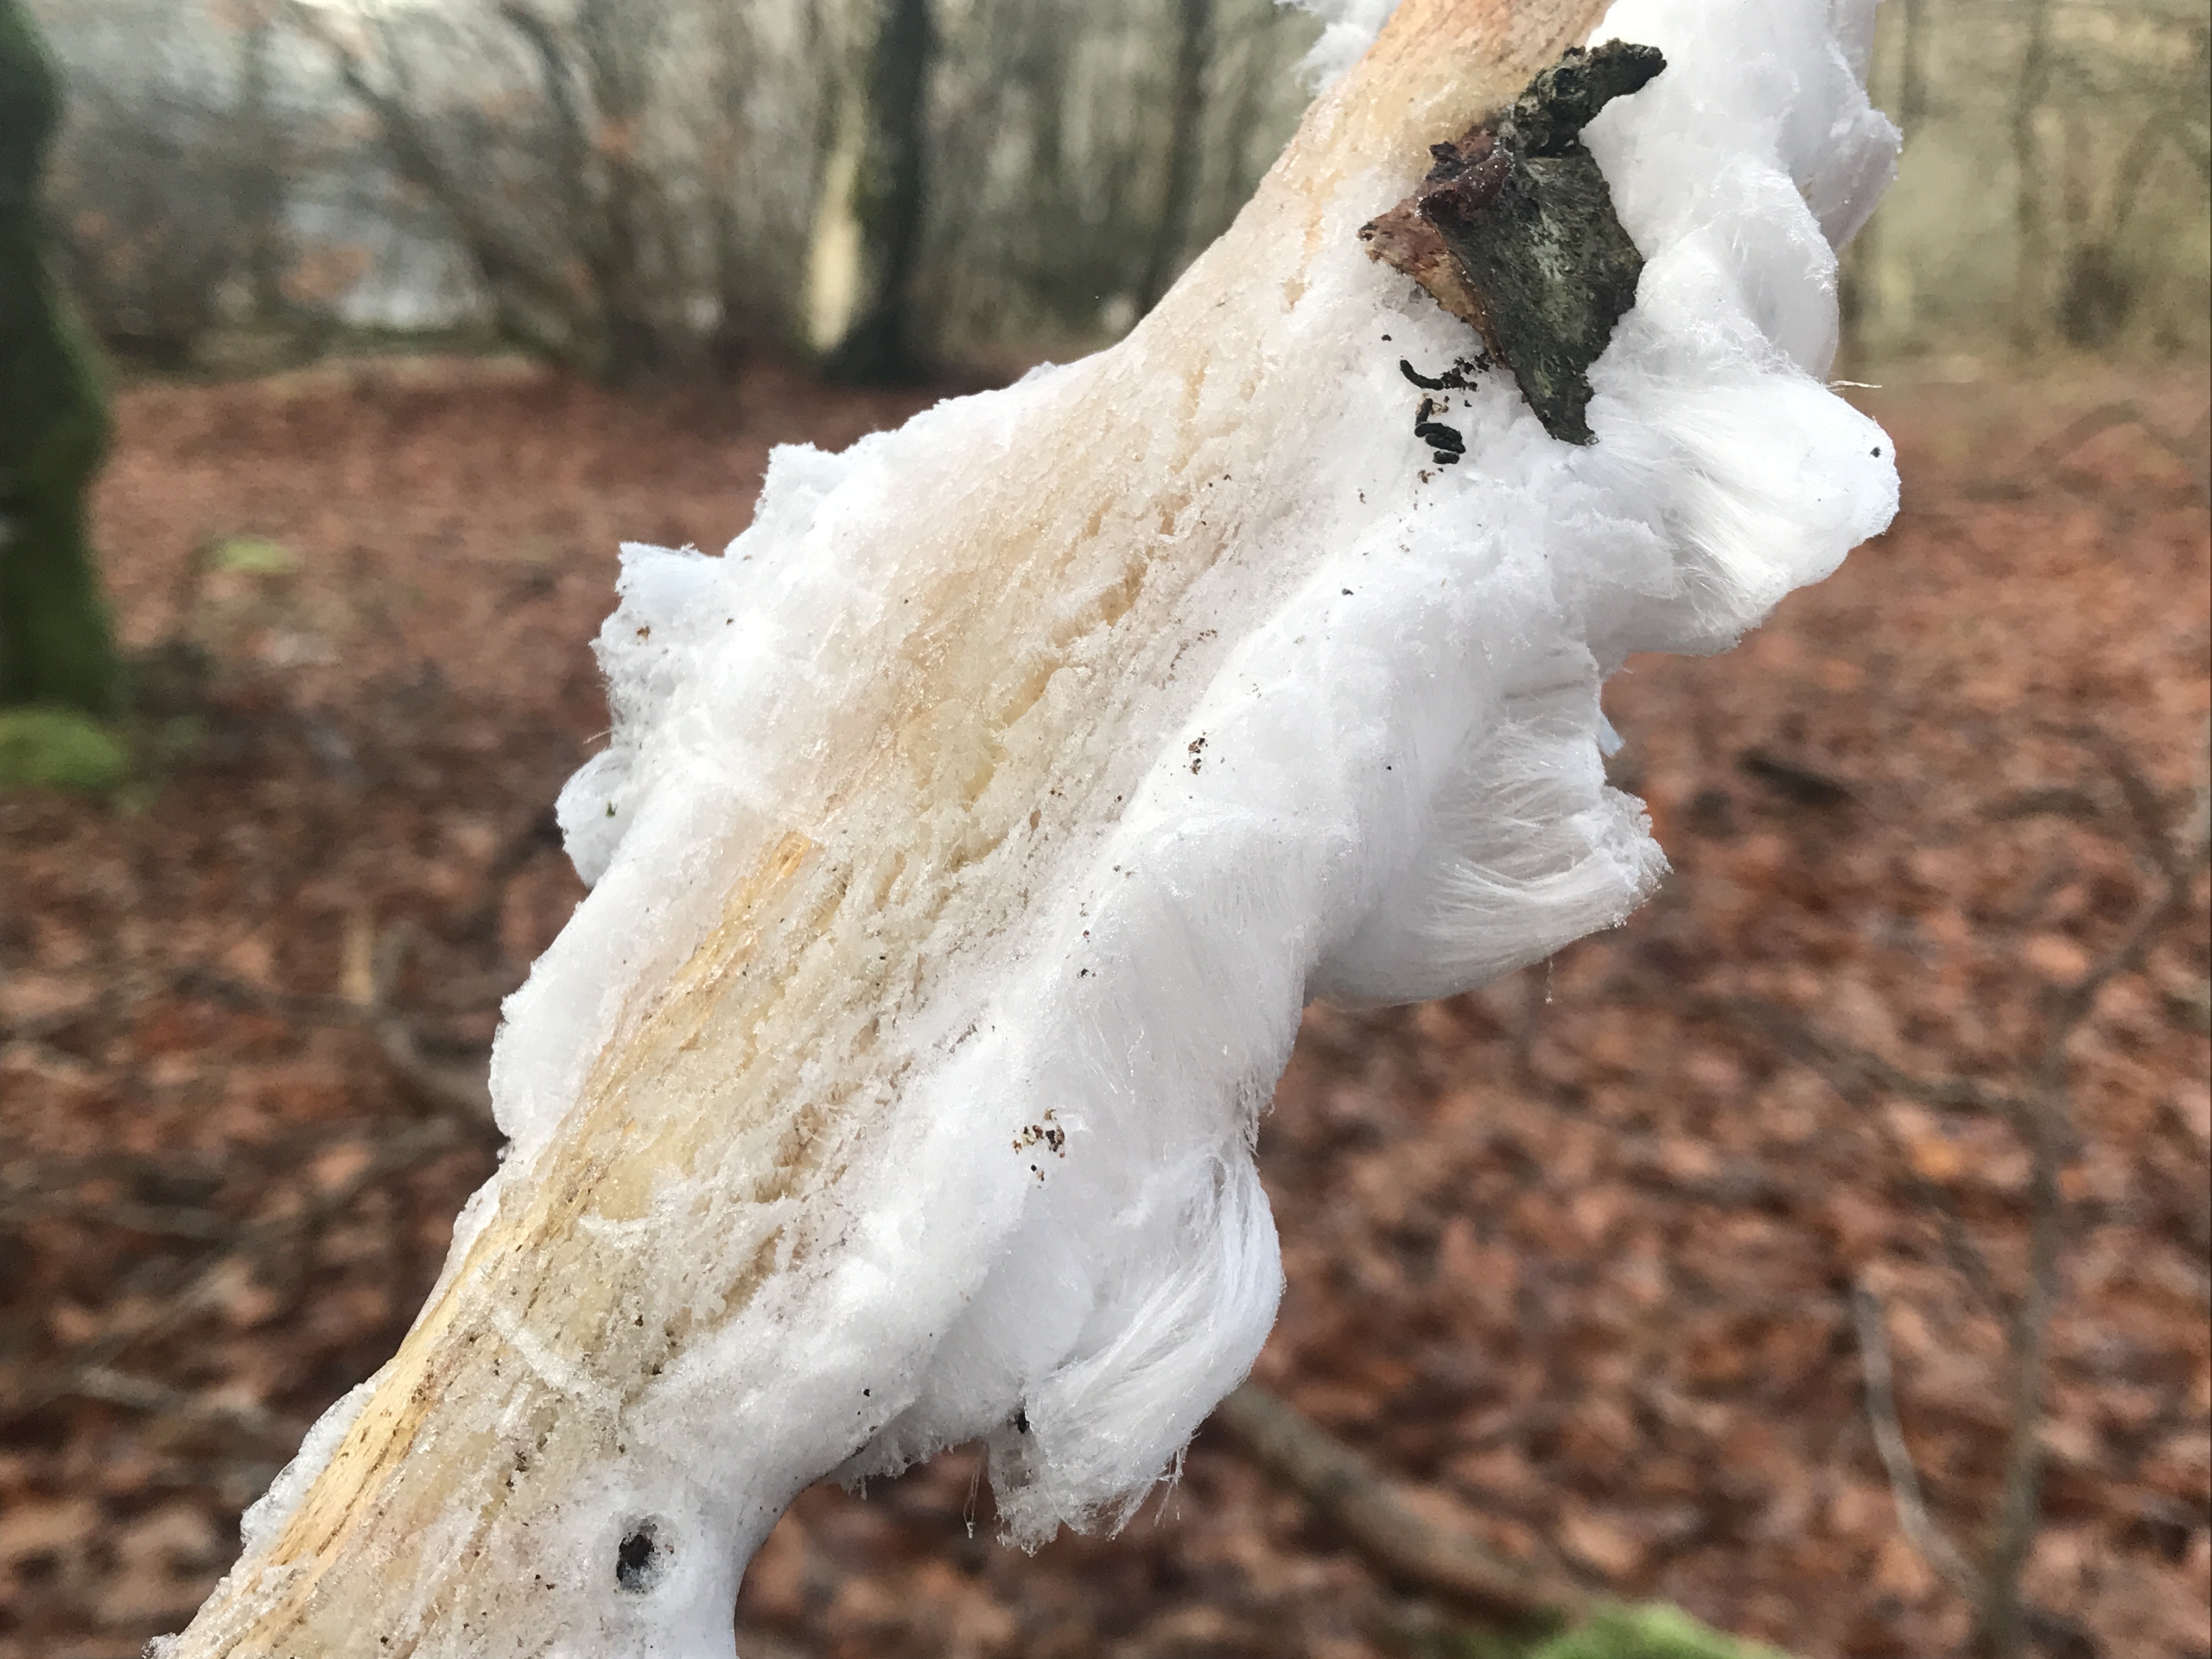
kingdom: Fungi
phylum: Basidiomycota
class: Tremellomycetes
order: Tremellales
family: Exidiaceae
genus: Exidiopsis
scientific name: Exidiopsis effusa
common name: Smuk bævrehinde
